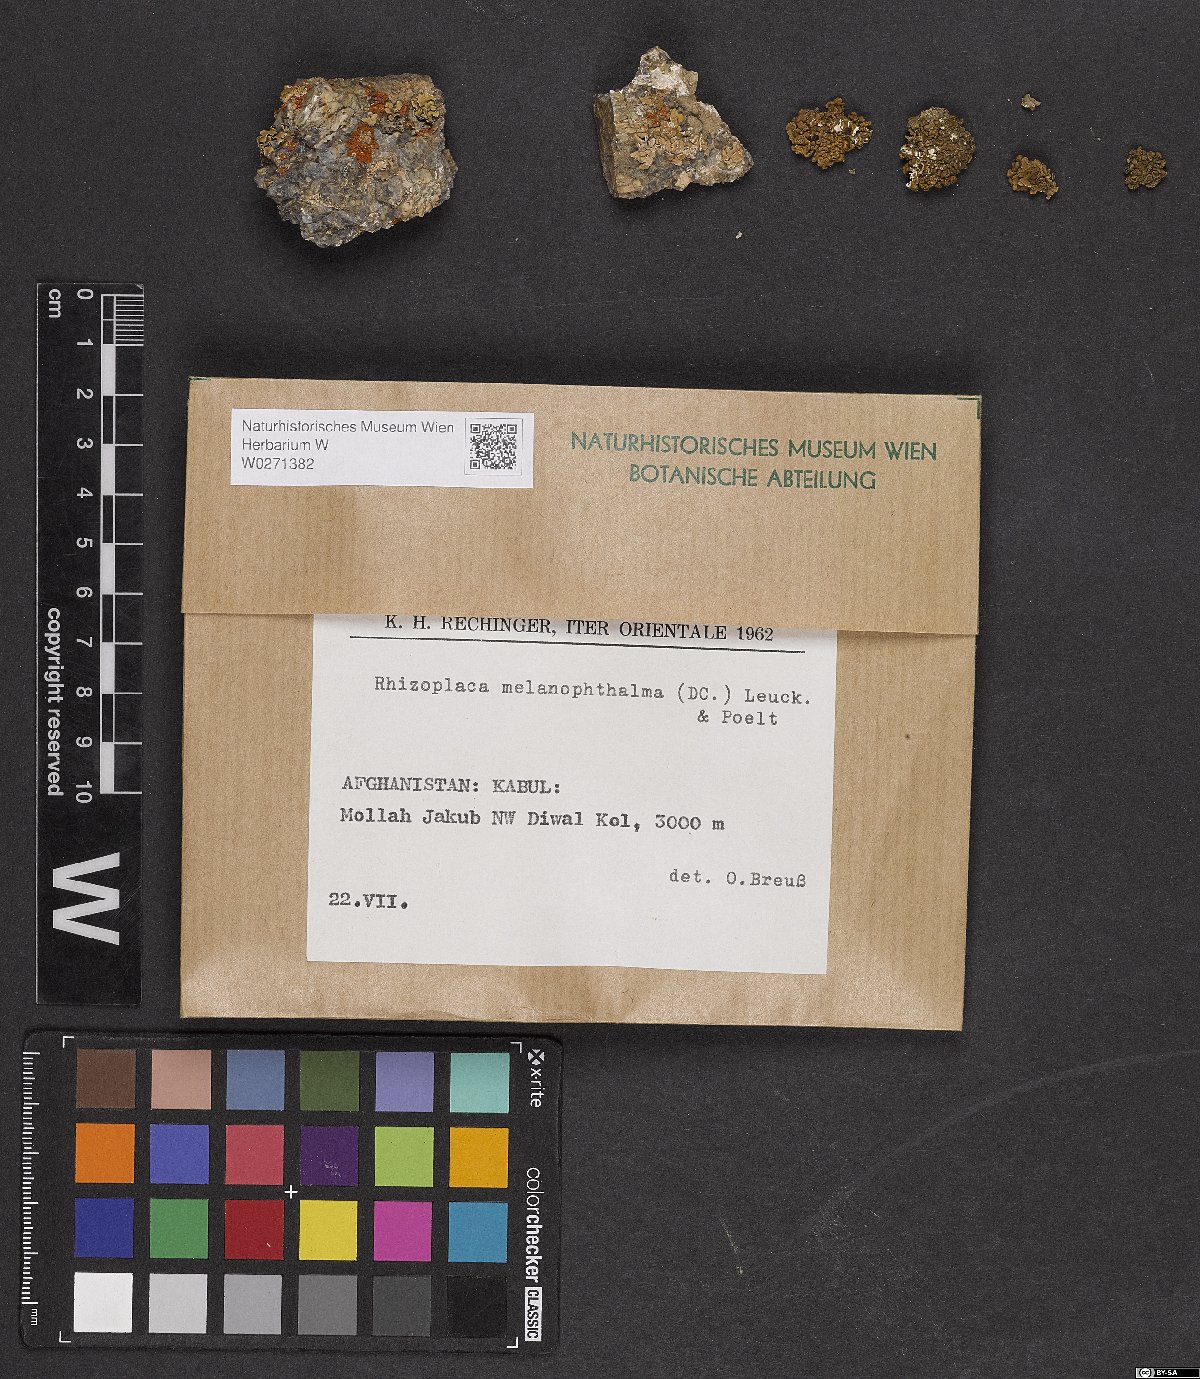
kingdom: Fungi
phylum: Ascomycota
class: Lecanoromycetes
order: Lecanorales
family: Lecanoraceae
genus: Rhizoplaca
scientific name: Rhizoplaca melanophthalma
